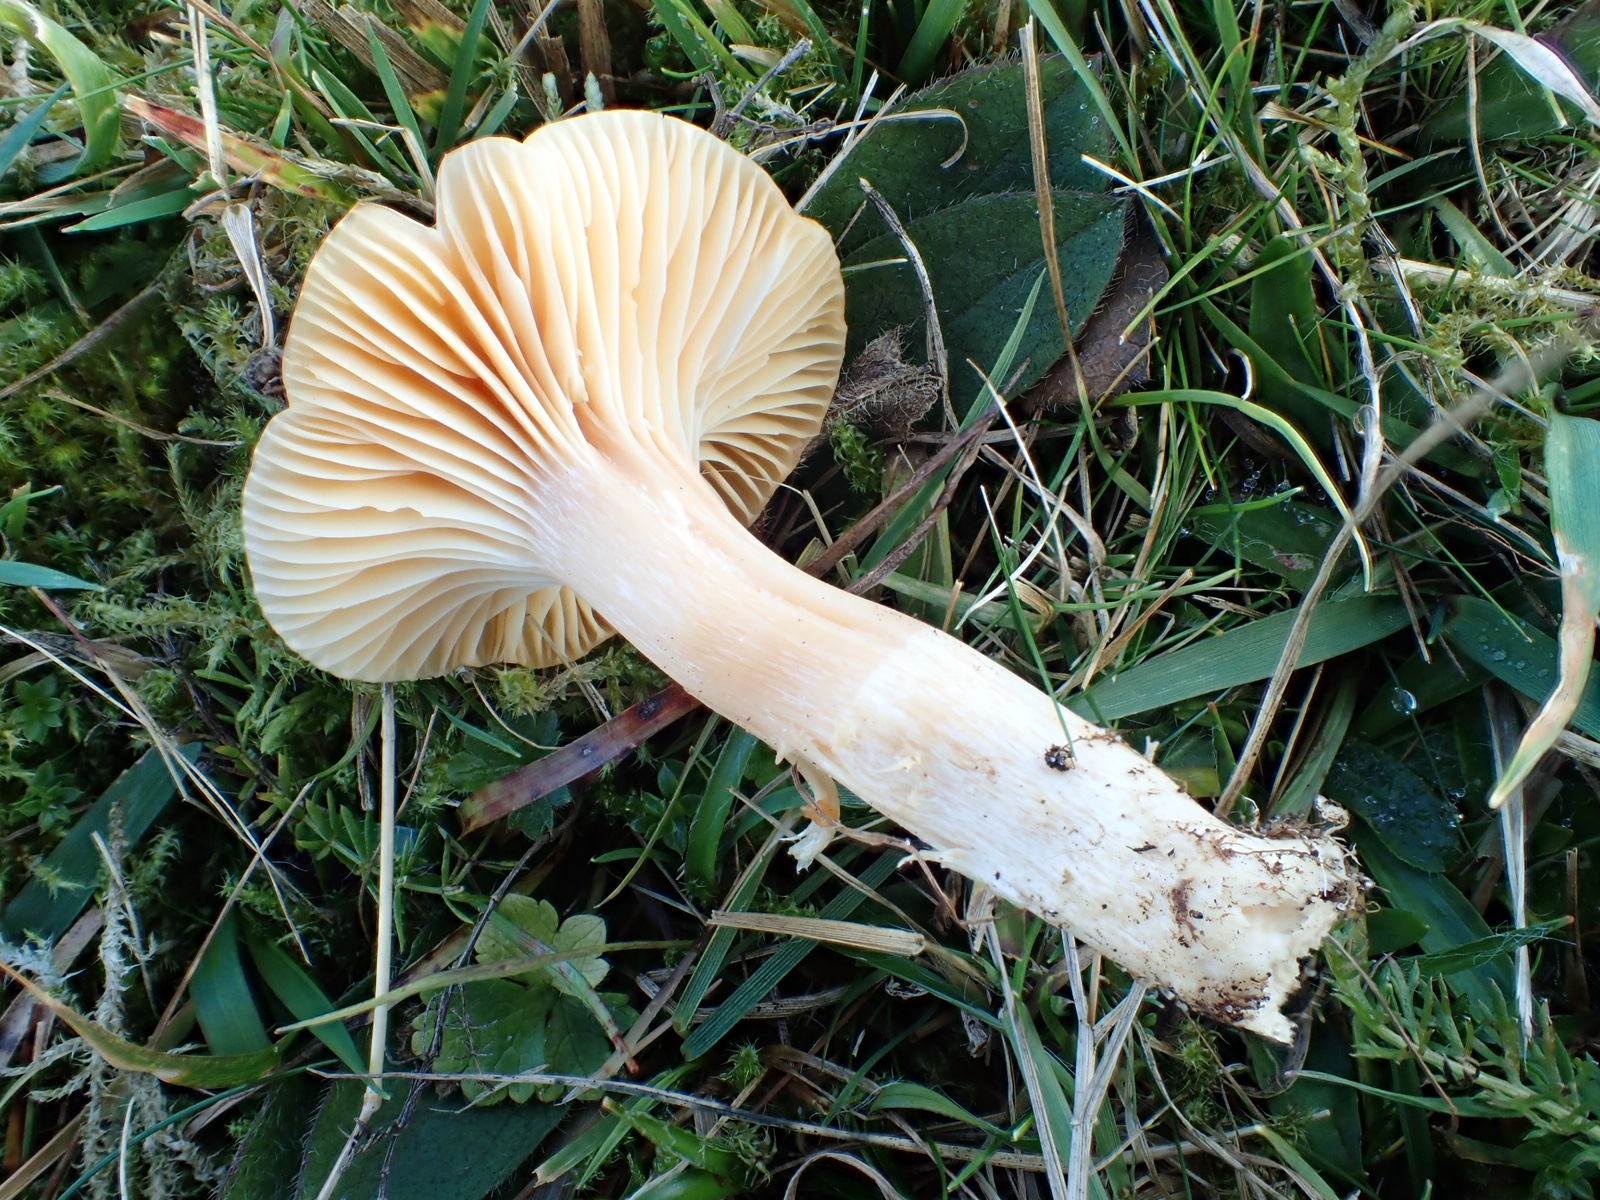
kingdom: Fungi
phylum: Basidiomycota
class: Agaricomycetes
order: Agaricales
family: Hygrophoraceae
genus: Cuphophyllus
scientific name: Cuphophyllus pratensis
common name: eng-vokshat
